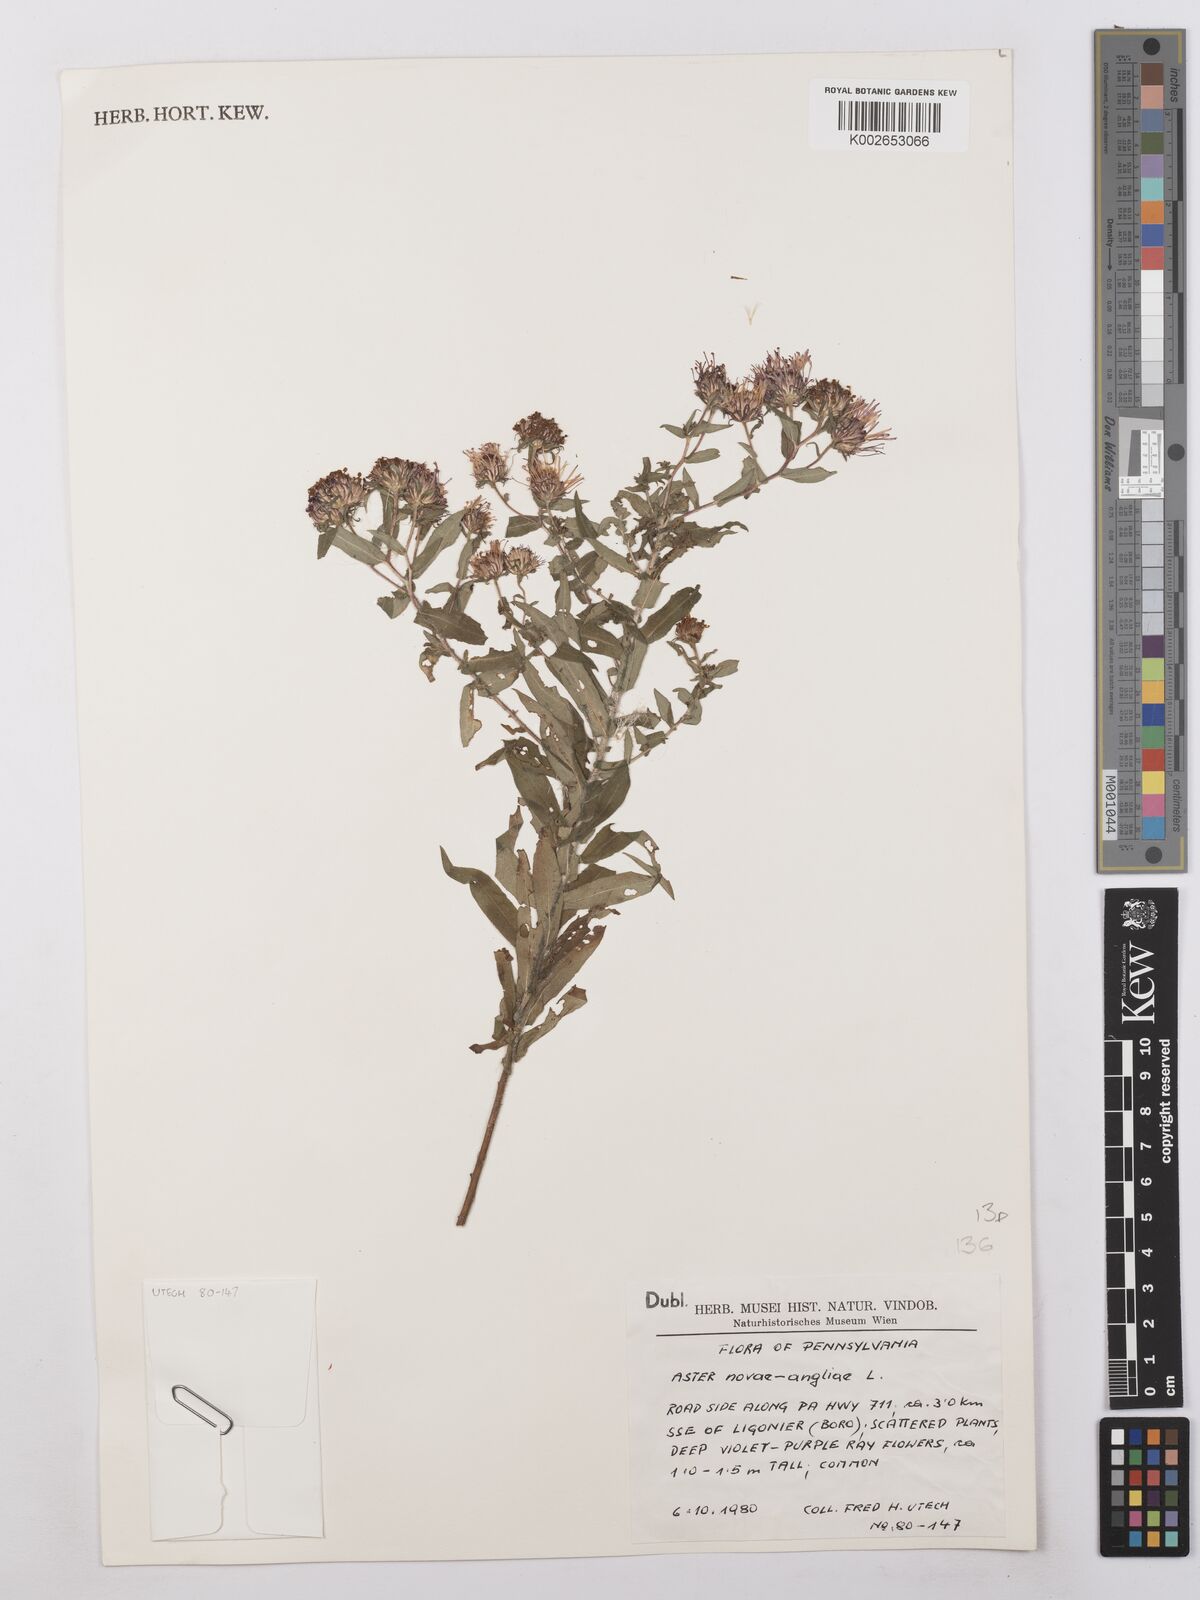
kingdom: Plantae
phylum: Tracheophyta
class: Magnoliopsida
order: Asterales
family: Asteraceae
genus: Symphyotrichum
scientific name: Symphyotrichum novae-angliae
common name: Michaelmas daisy
